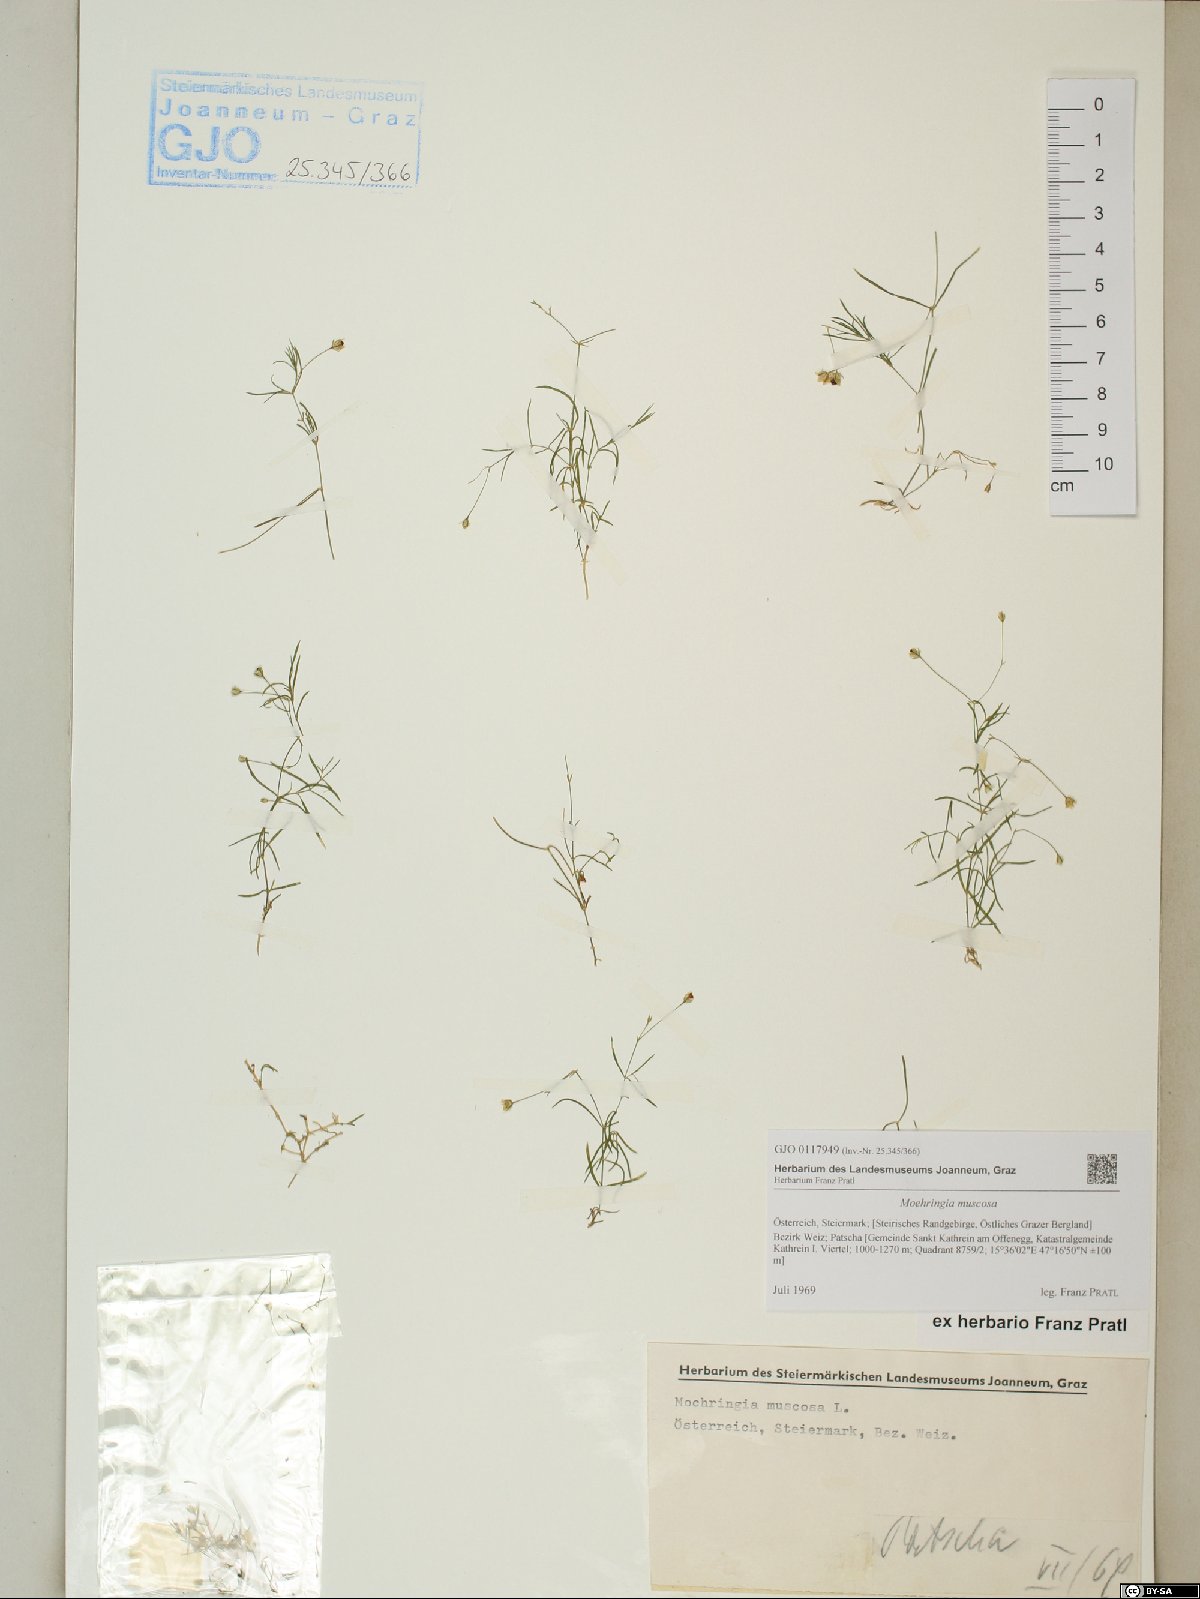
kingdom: Plantae
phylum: Tracheophyta
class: Magnoliopsida
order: Caryophyllales
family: Caryophyllaceae
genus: Moehringia
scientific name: Moehringia muscosa
